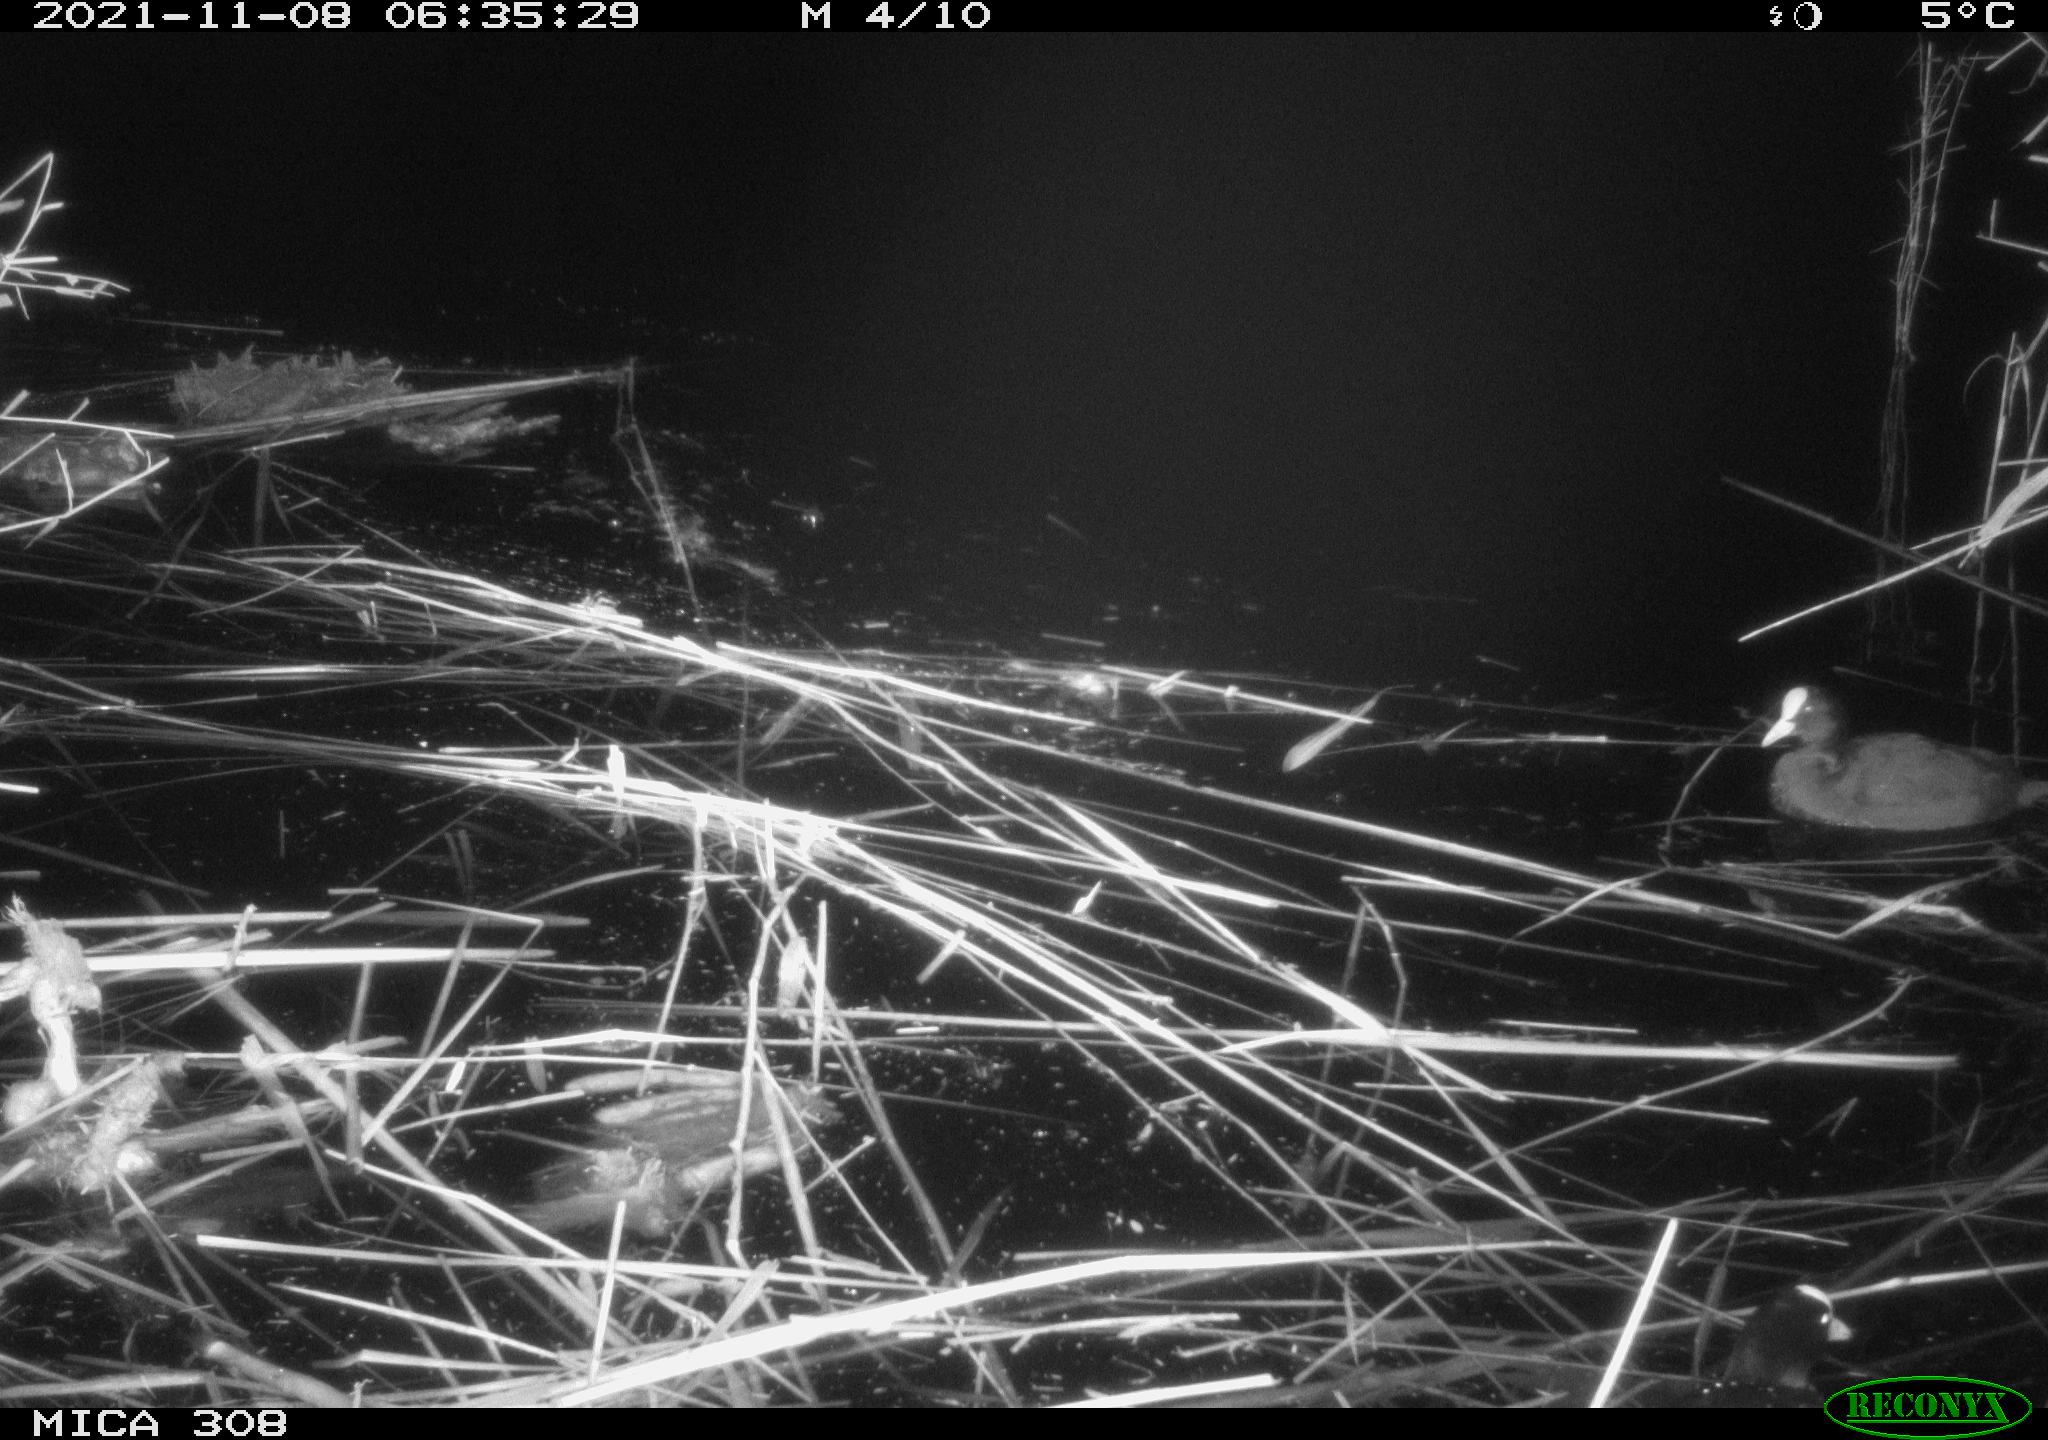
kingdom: Animalia
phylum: Chordata
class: Aves
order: Gruiformes
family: Rallidae
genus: Fulica
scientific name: Fulica atra
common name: Eurasian coot
